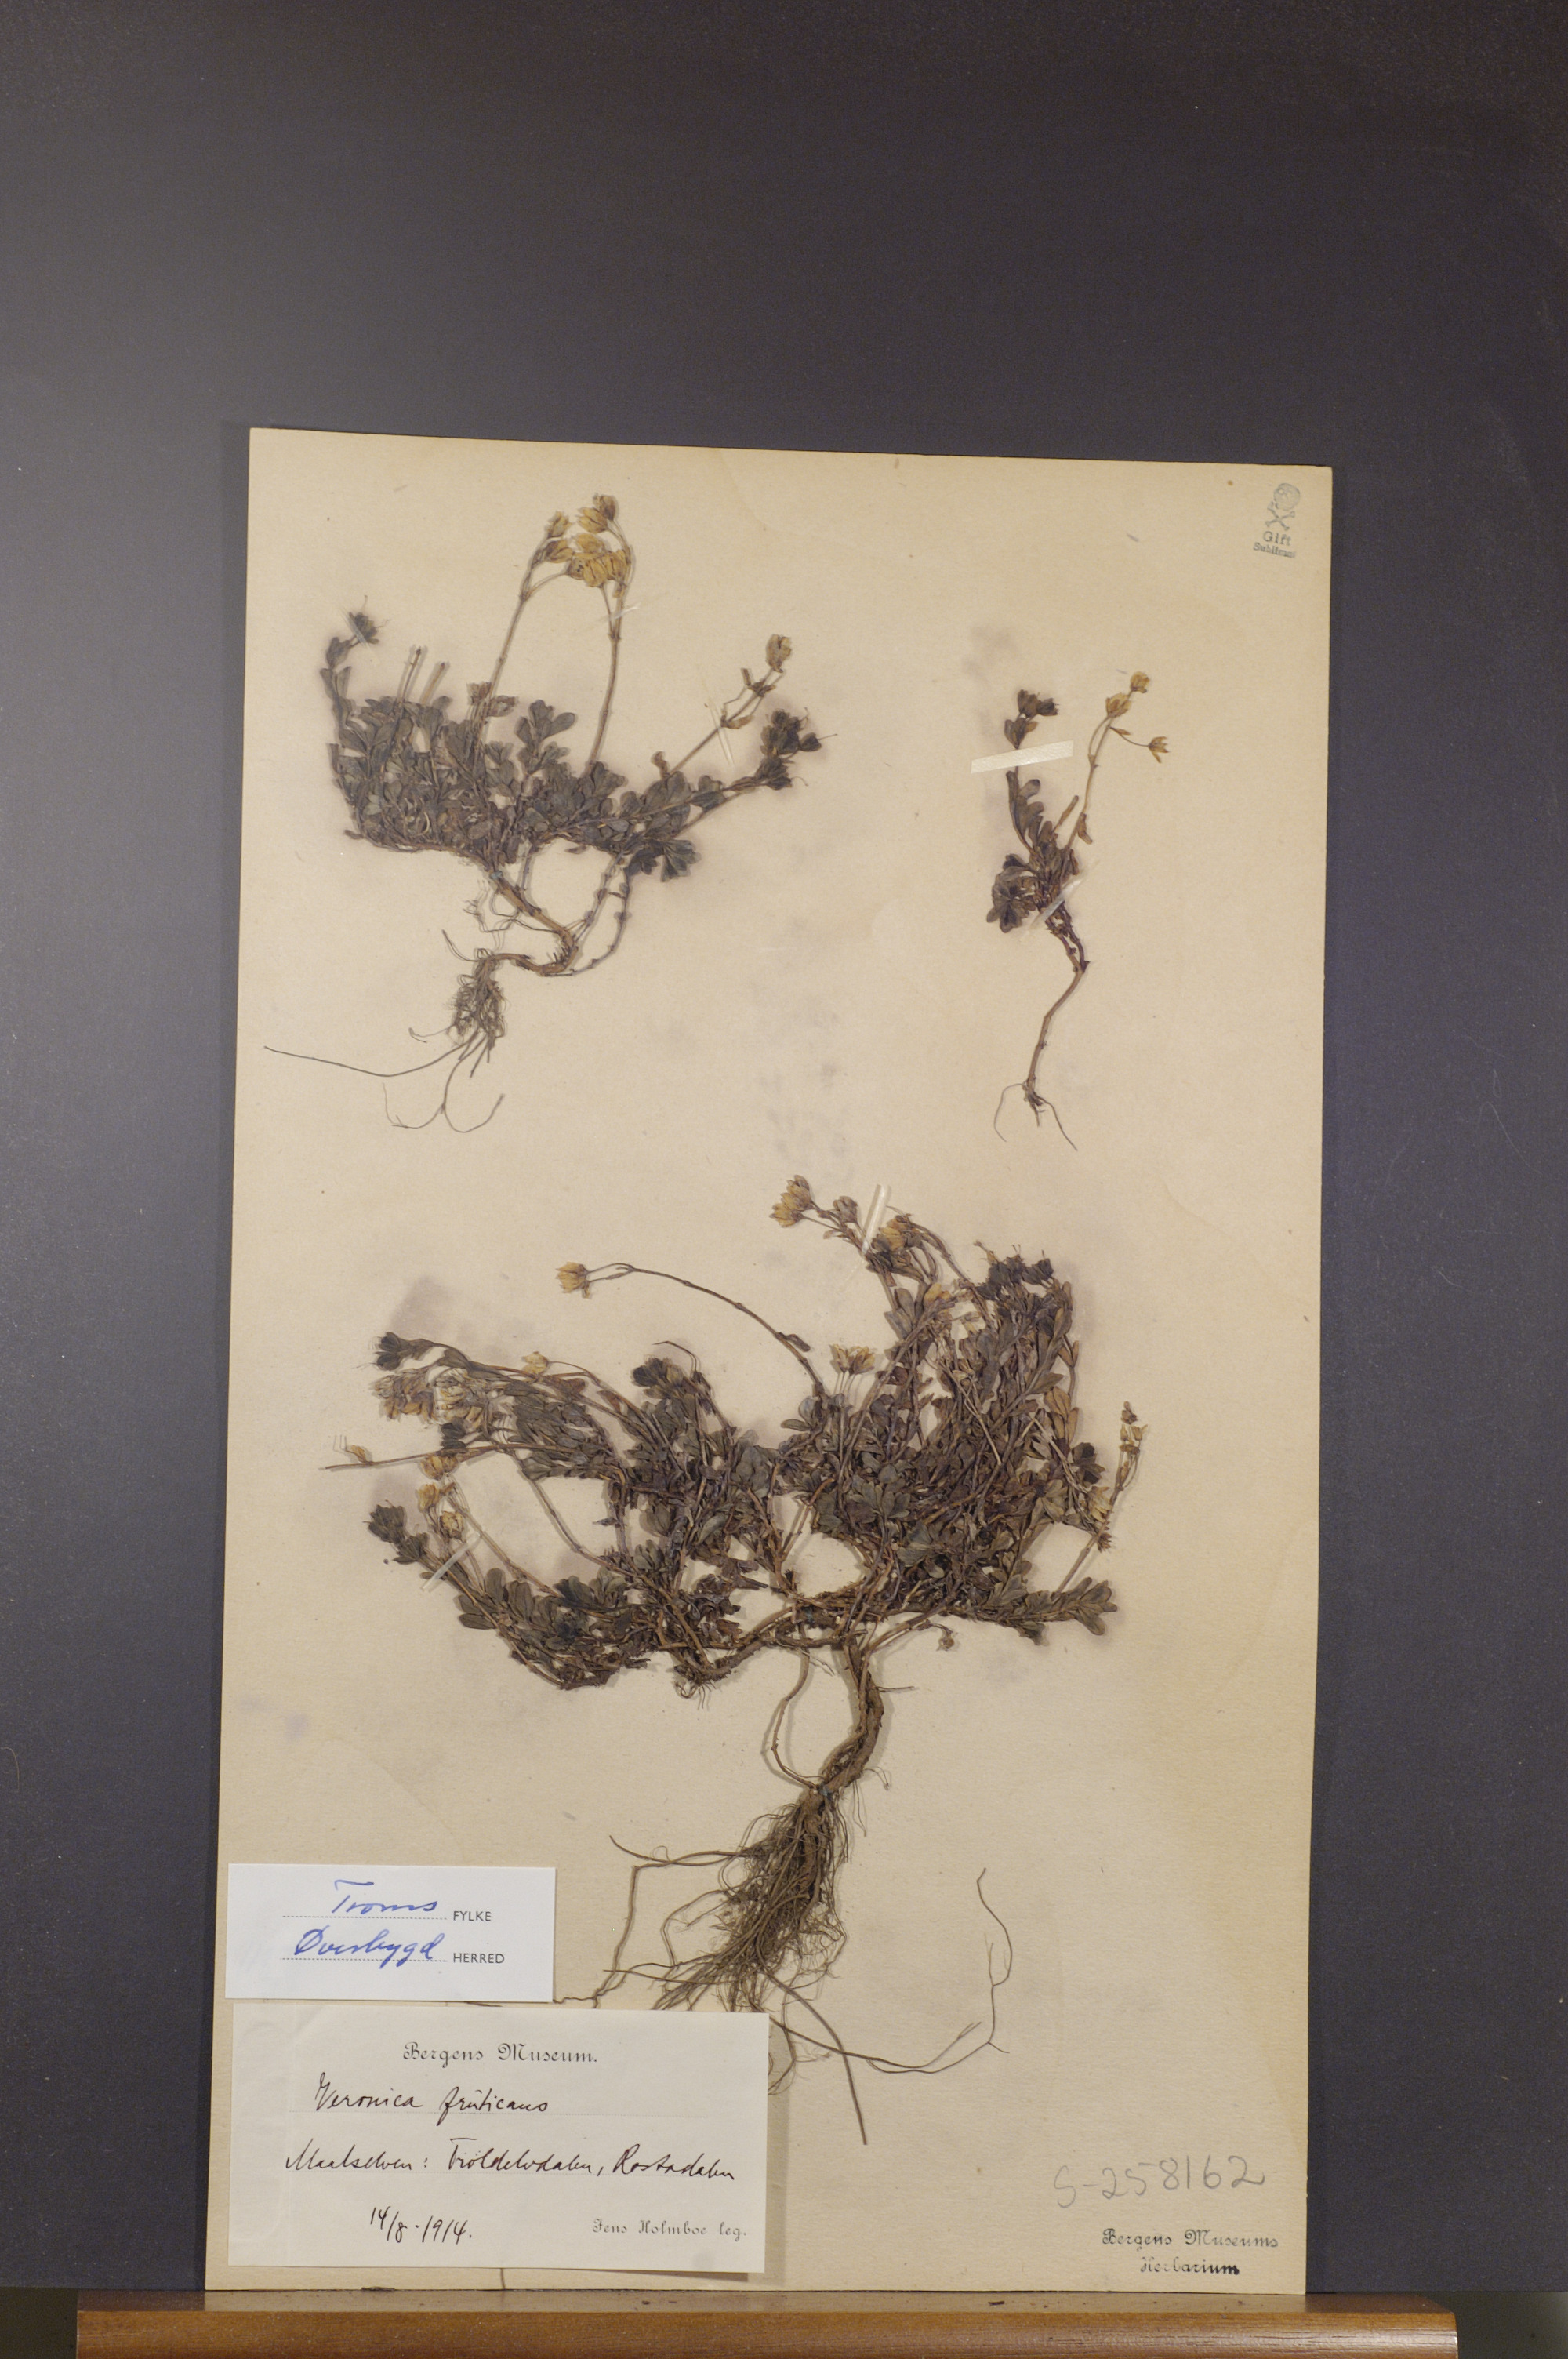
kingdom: Plantae
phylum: Tracheophyta
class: Magnoliopsida
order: Lamiales
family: Plantaginaceae
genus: Veronica
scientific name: Veronica fruticans
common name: Rock speedwell
